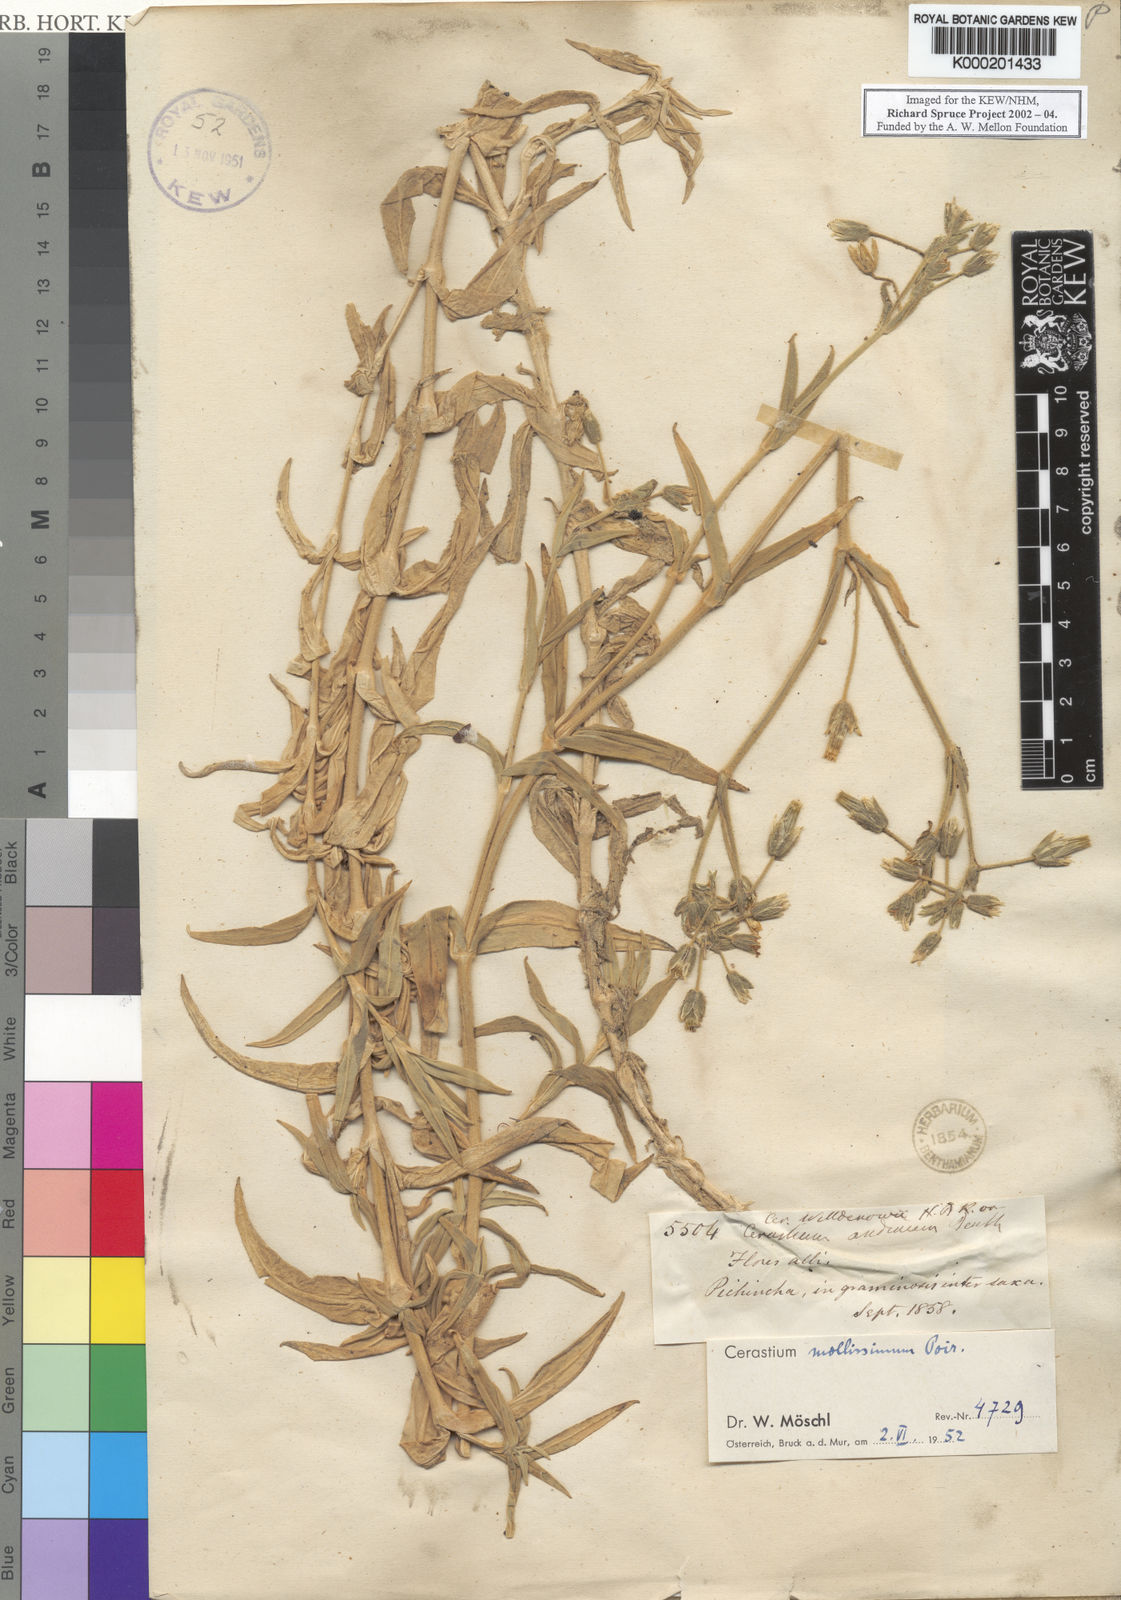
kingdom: Plantae
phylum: Tracheophyta
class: Magnoliopsida
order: Caryophyllales
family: Caryophyllaceae
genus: Cerastium
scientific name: Cerastium mollissimum
